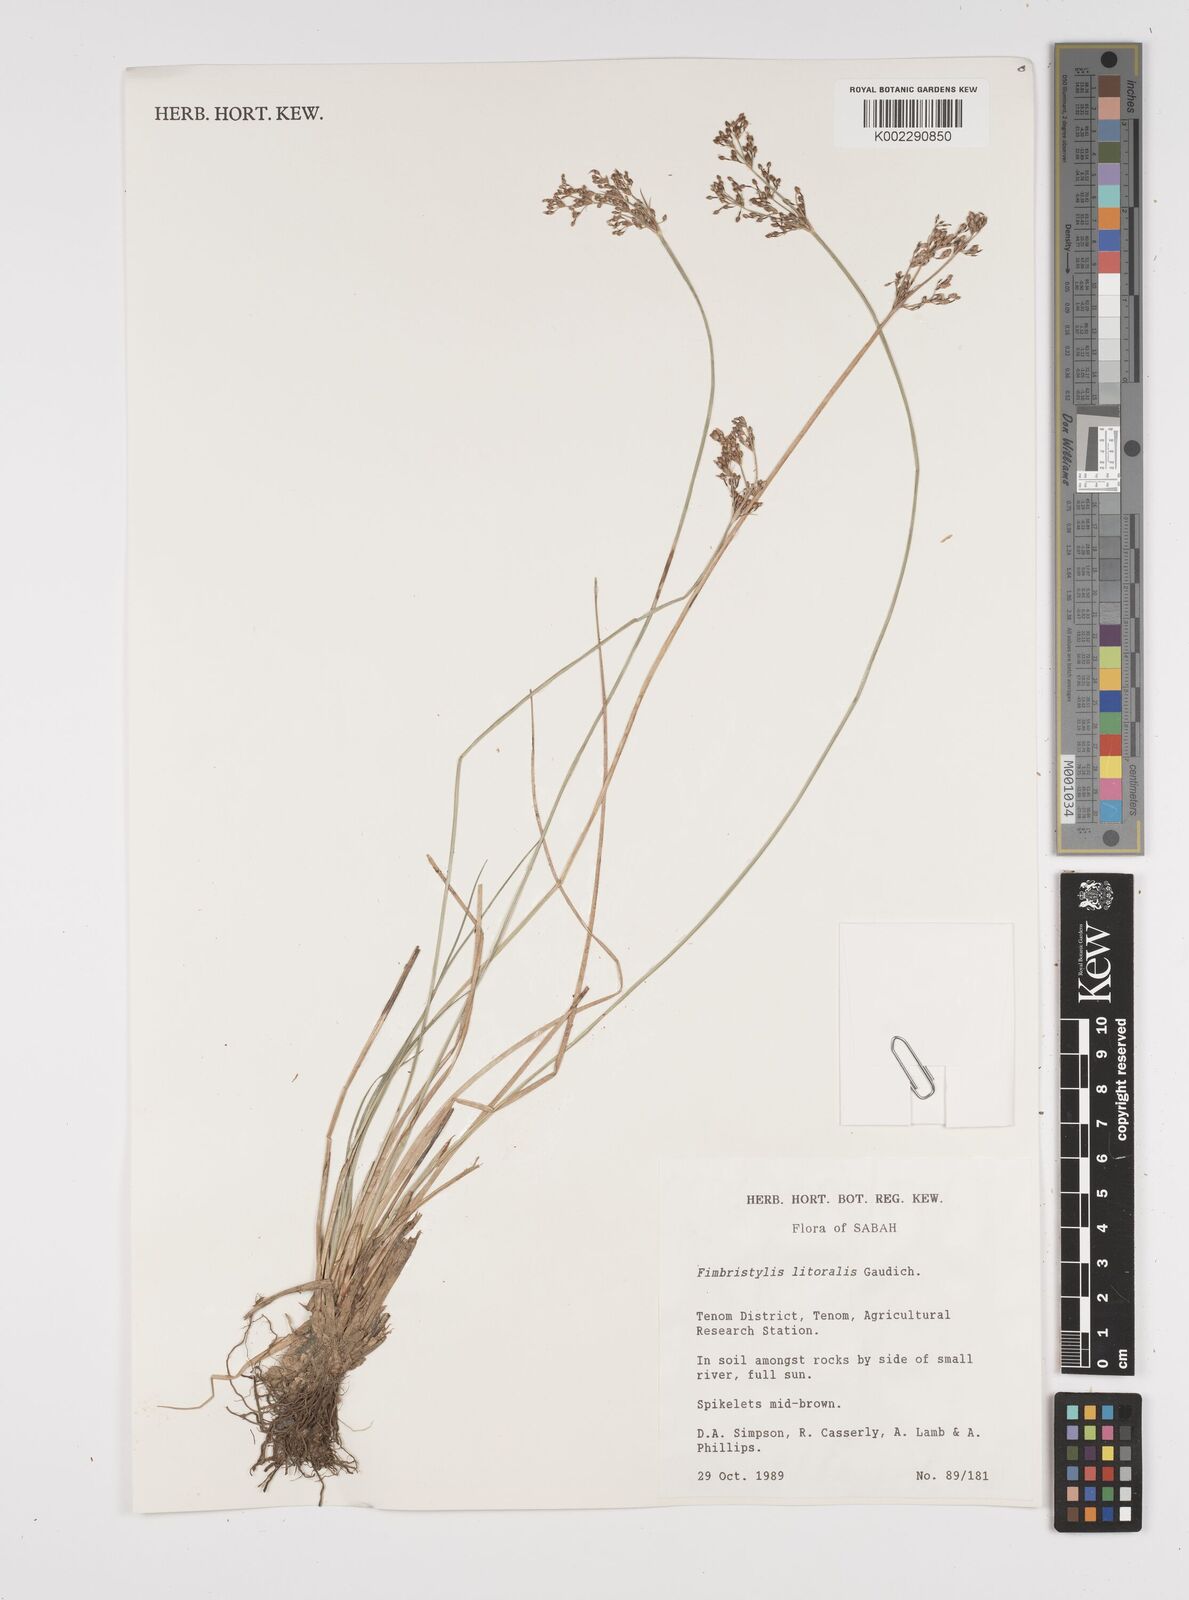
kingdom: Plantae
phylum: Tracheophyta
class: Liliopsida
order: Poales
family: Cyperaceae
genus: Fimbristylis
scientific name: Fimbristylis littoralis
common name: Fimbry
